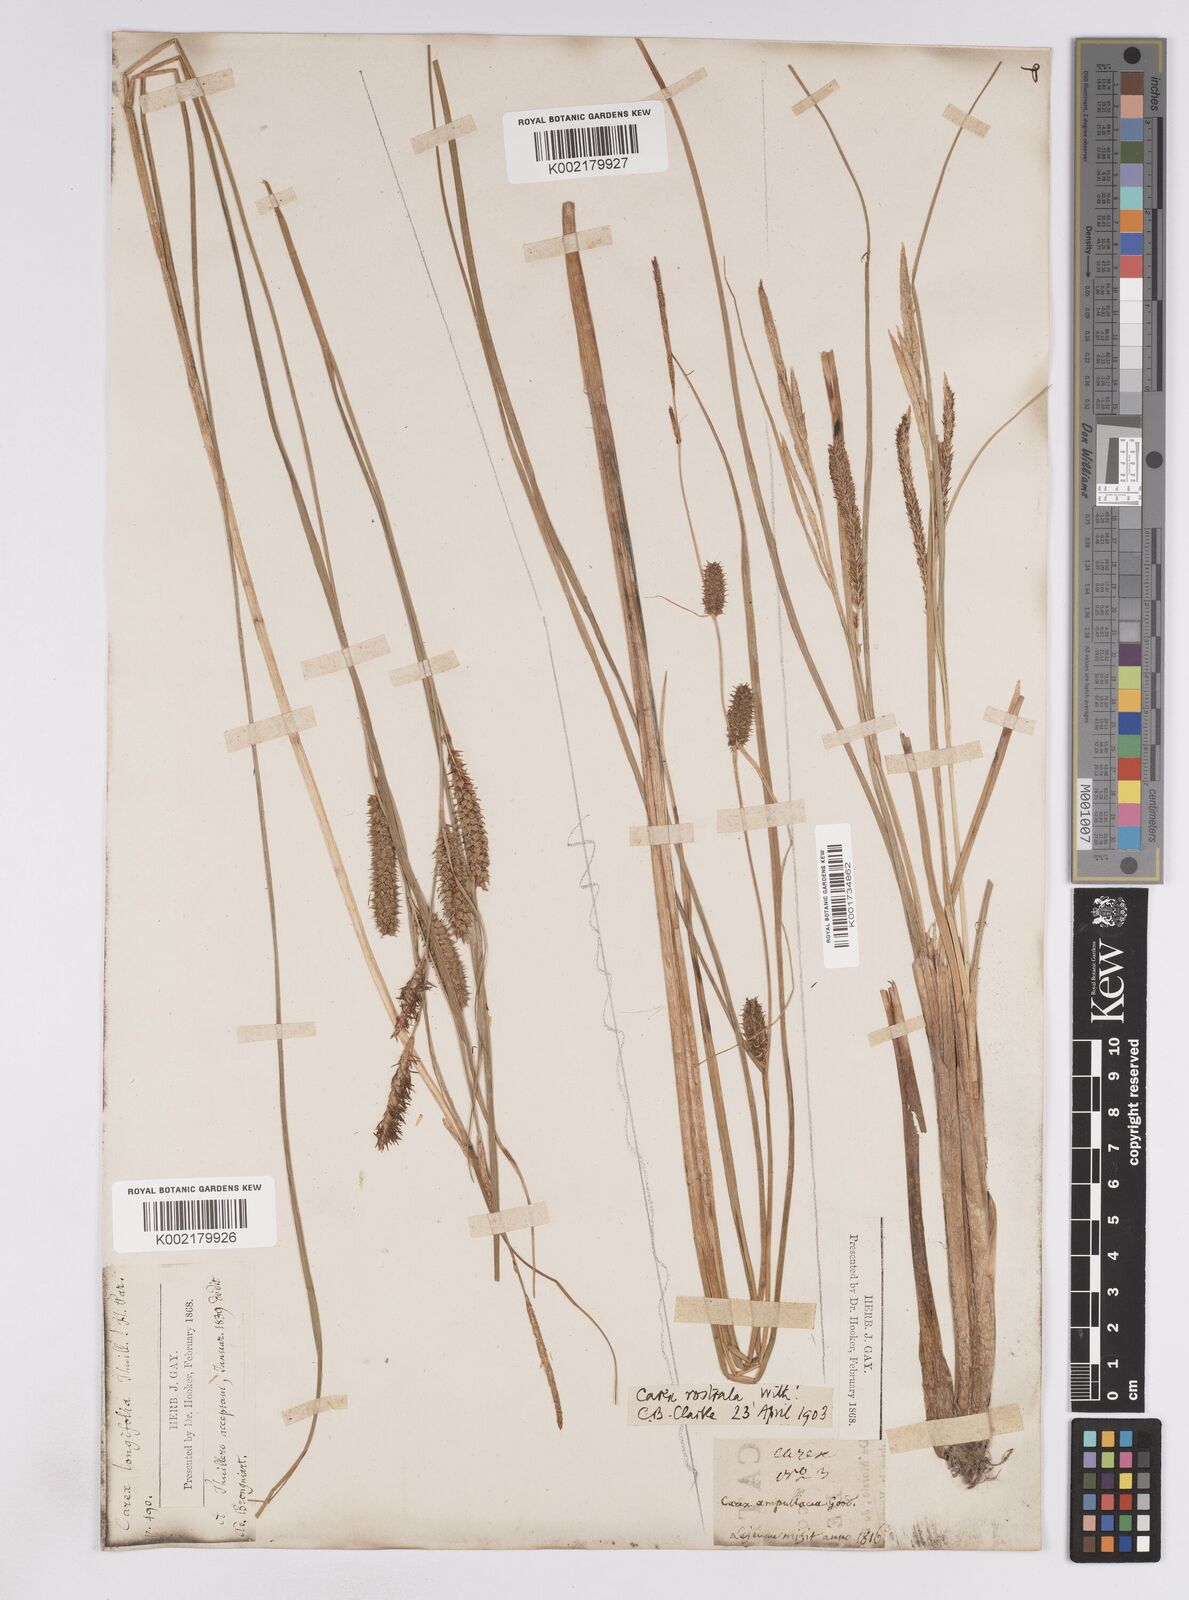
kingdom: Plantae
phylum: Tracheophyta
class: Liliopsida
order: Poales
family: Cyperaceae
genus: Carex
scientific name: Carex rostrata
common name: Bottle sedge
